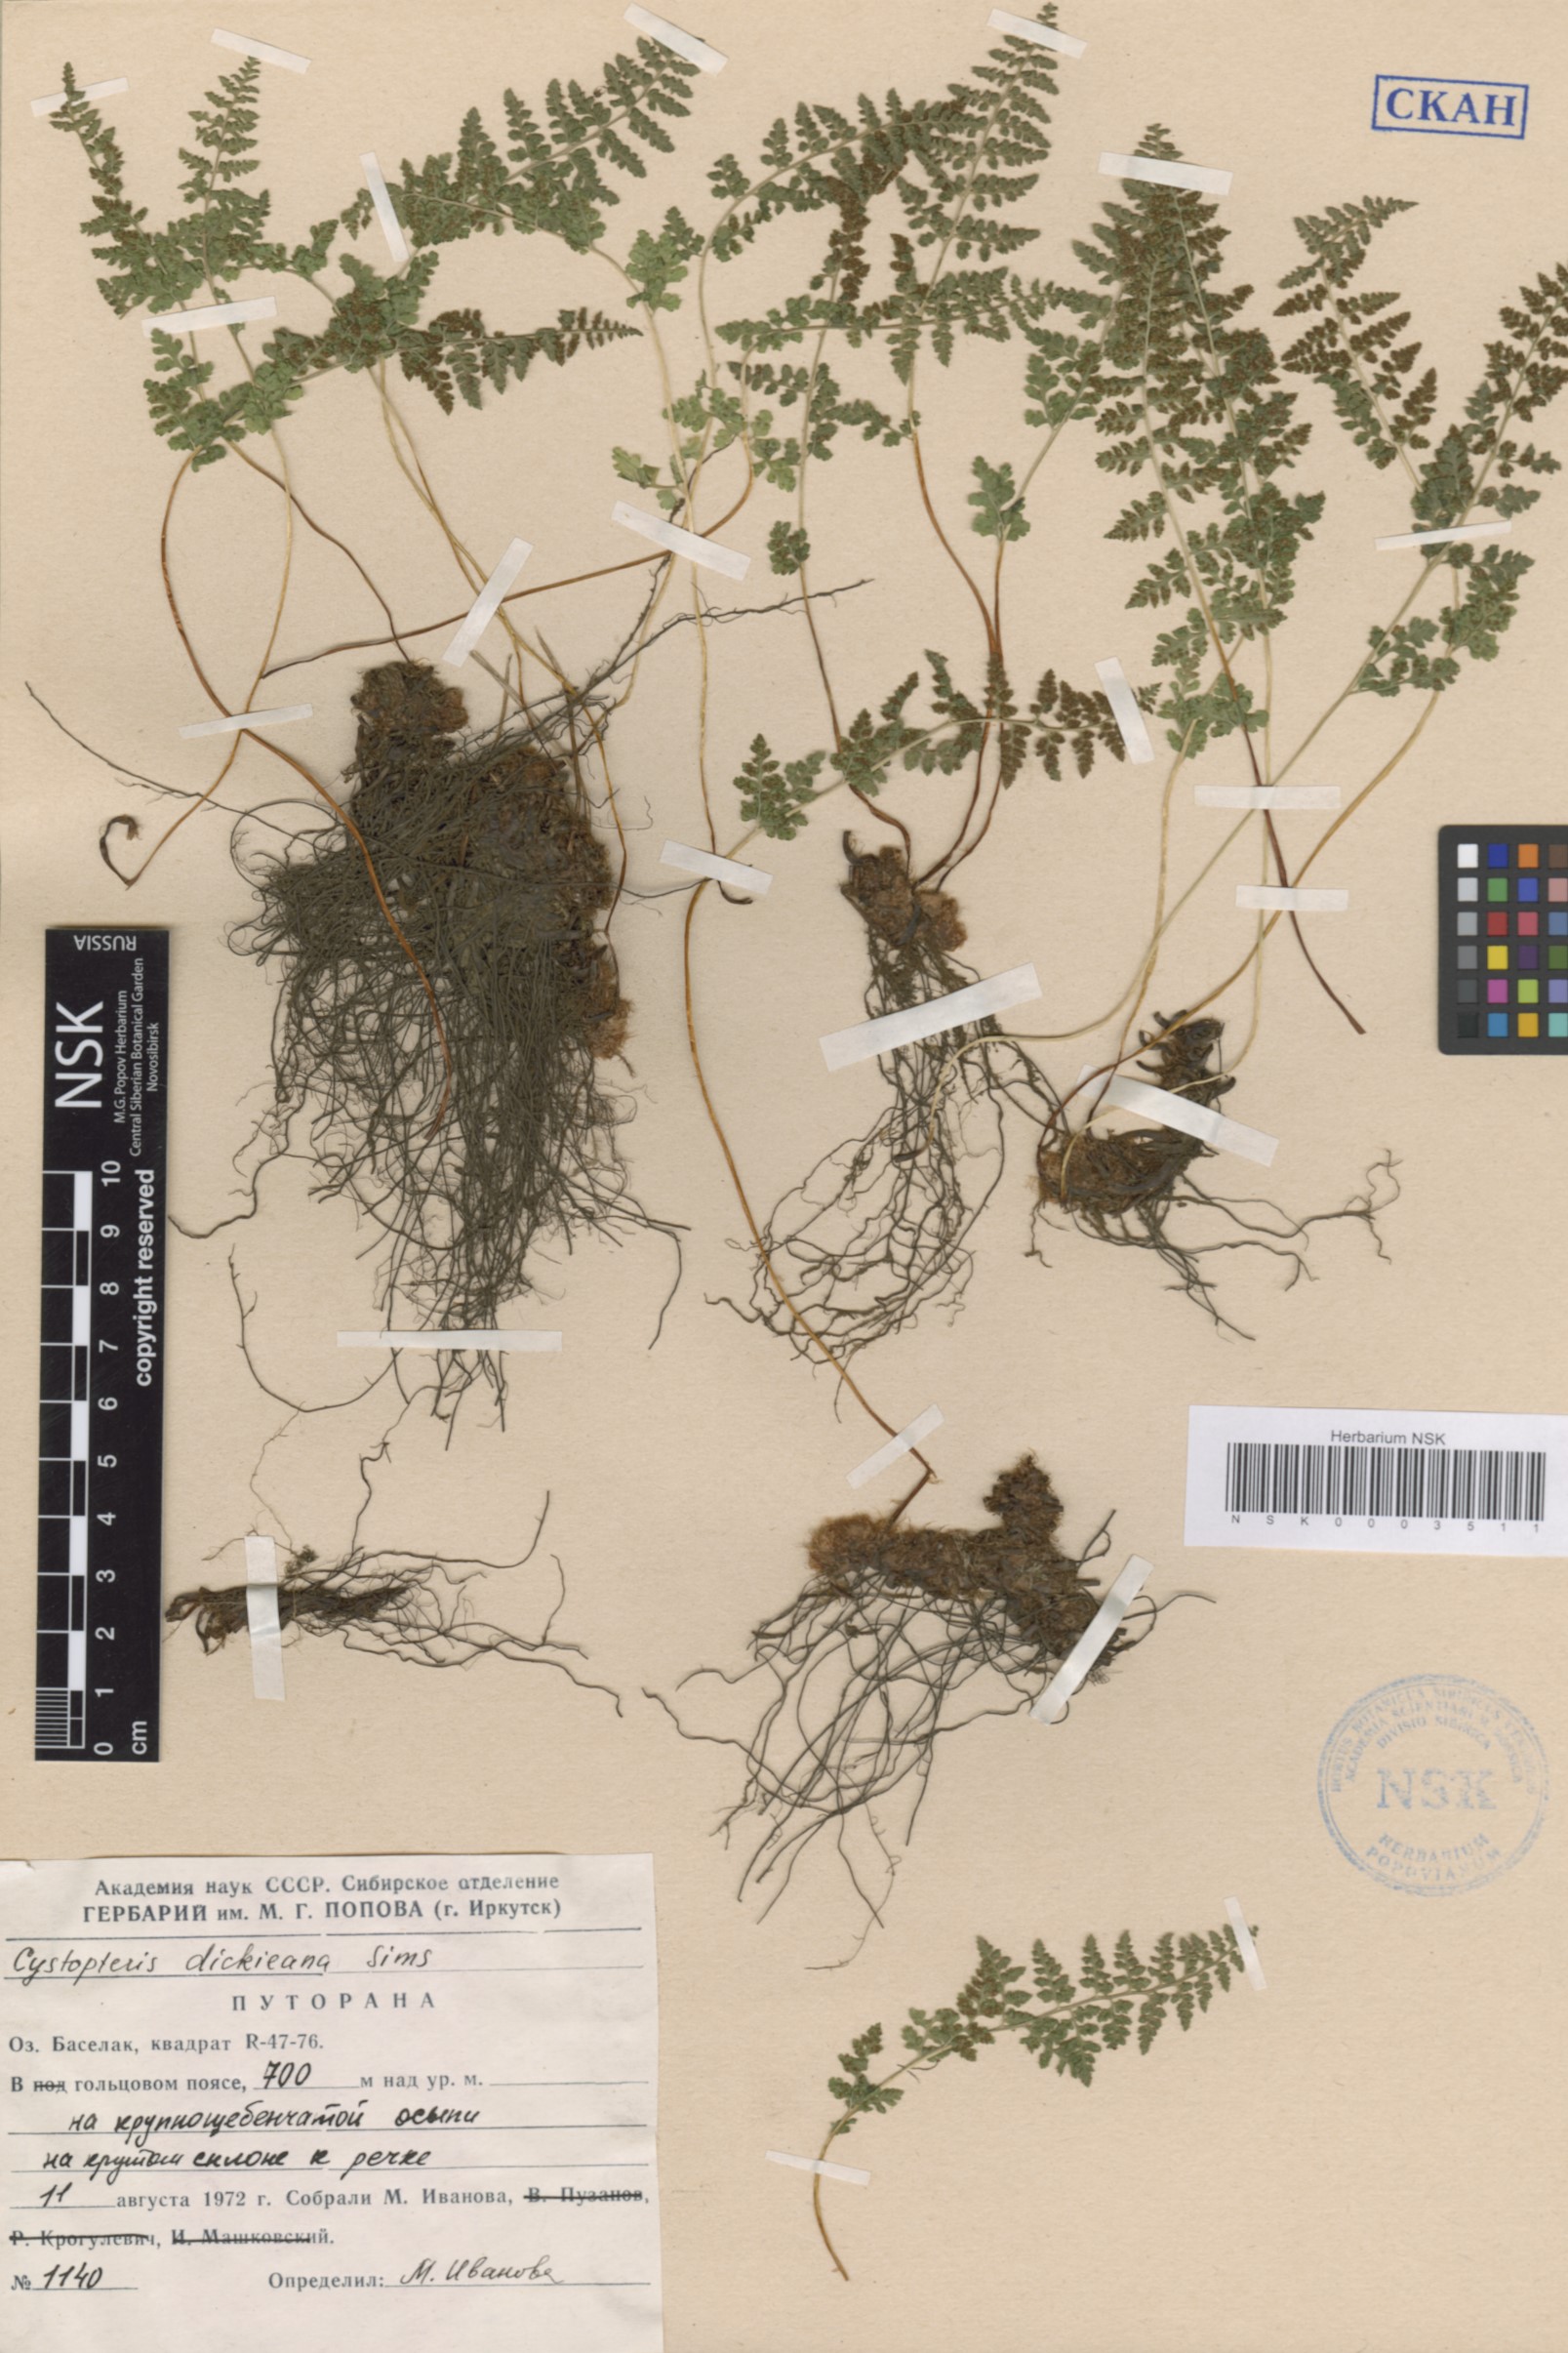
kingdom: Plantae
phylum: Tracheophyta
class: Polypodiopsida
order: Polypodiales
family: Cystopteridaceae
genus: Cystopteris
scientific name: Cystopteris dickieana
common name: Dickie's bladder-fern
